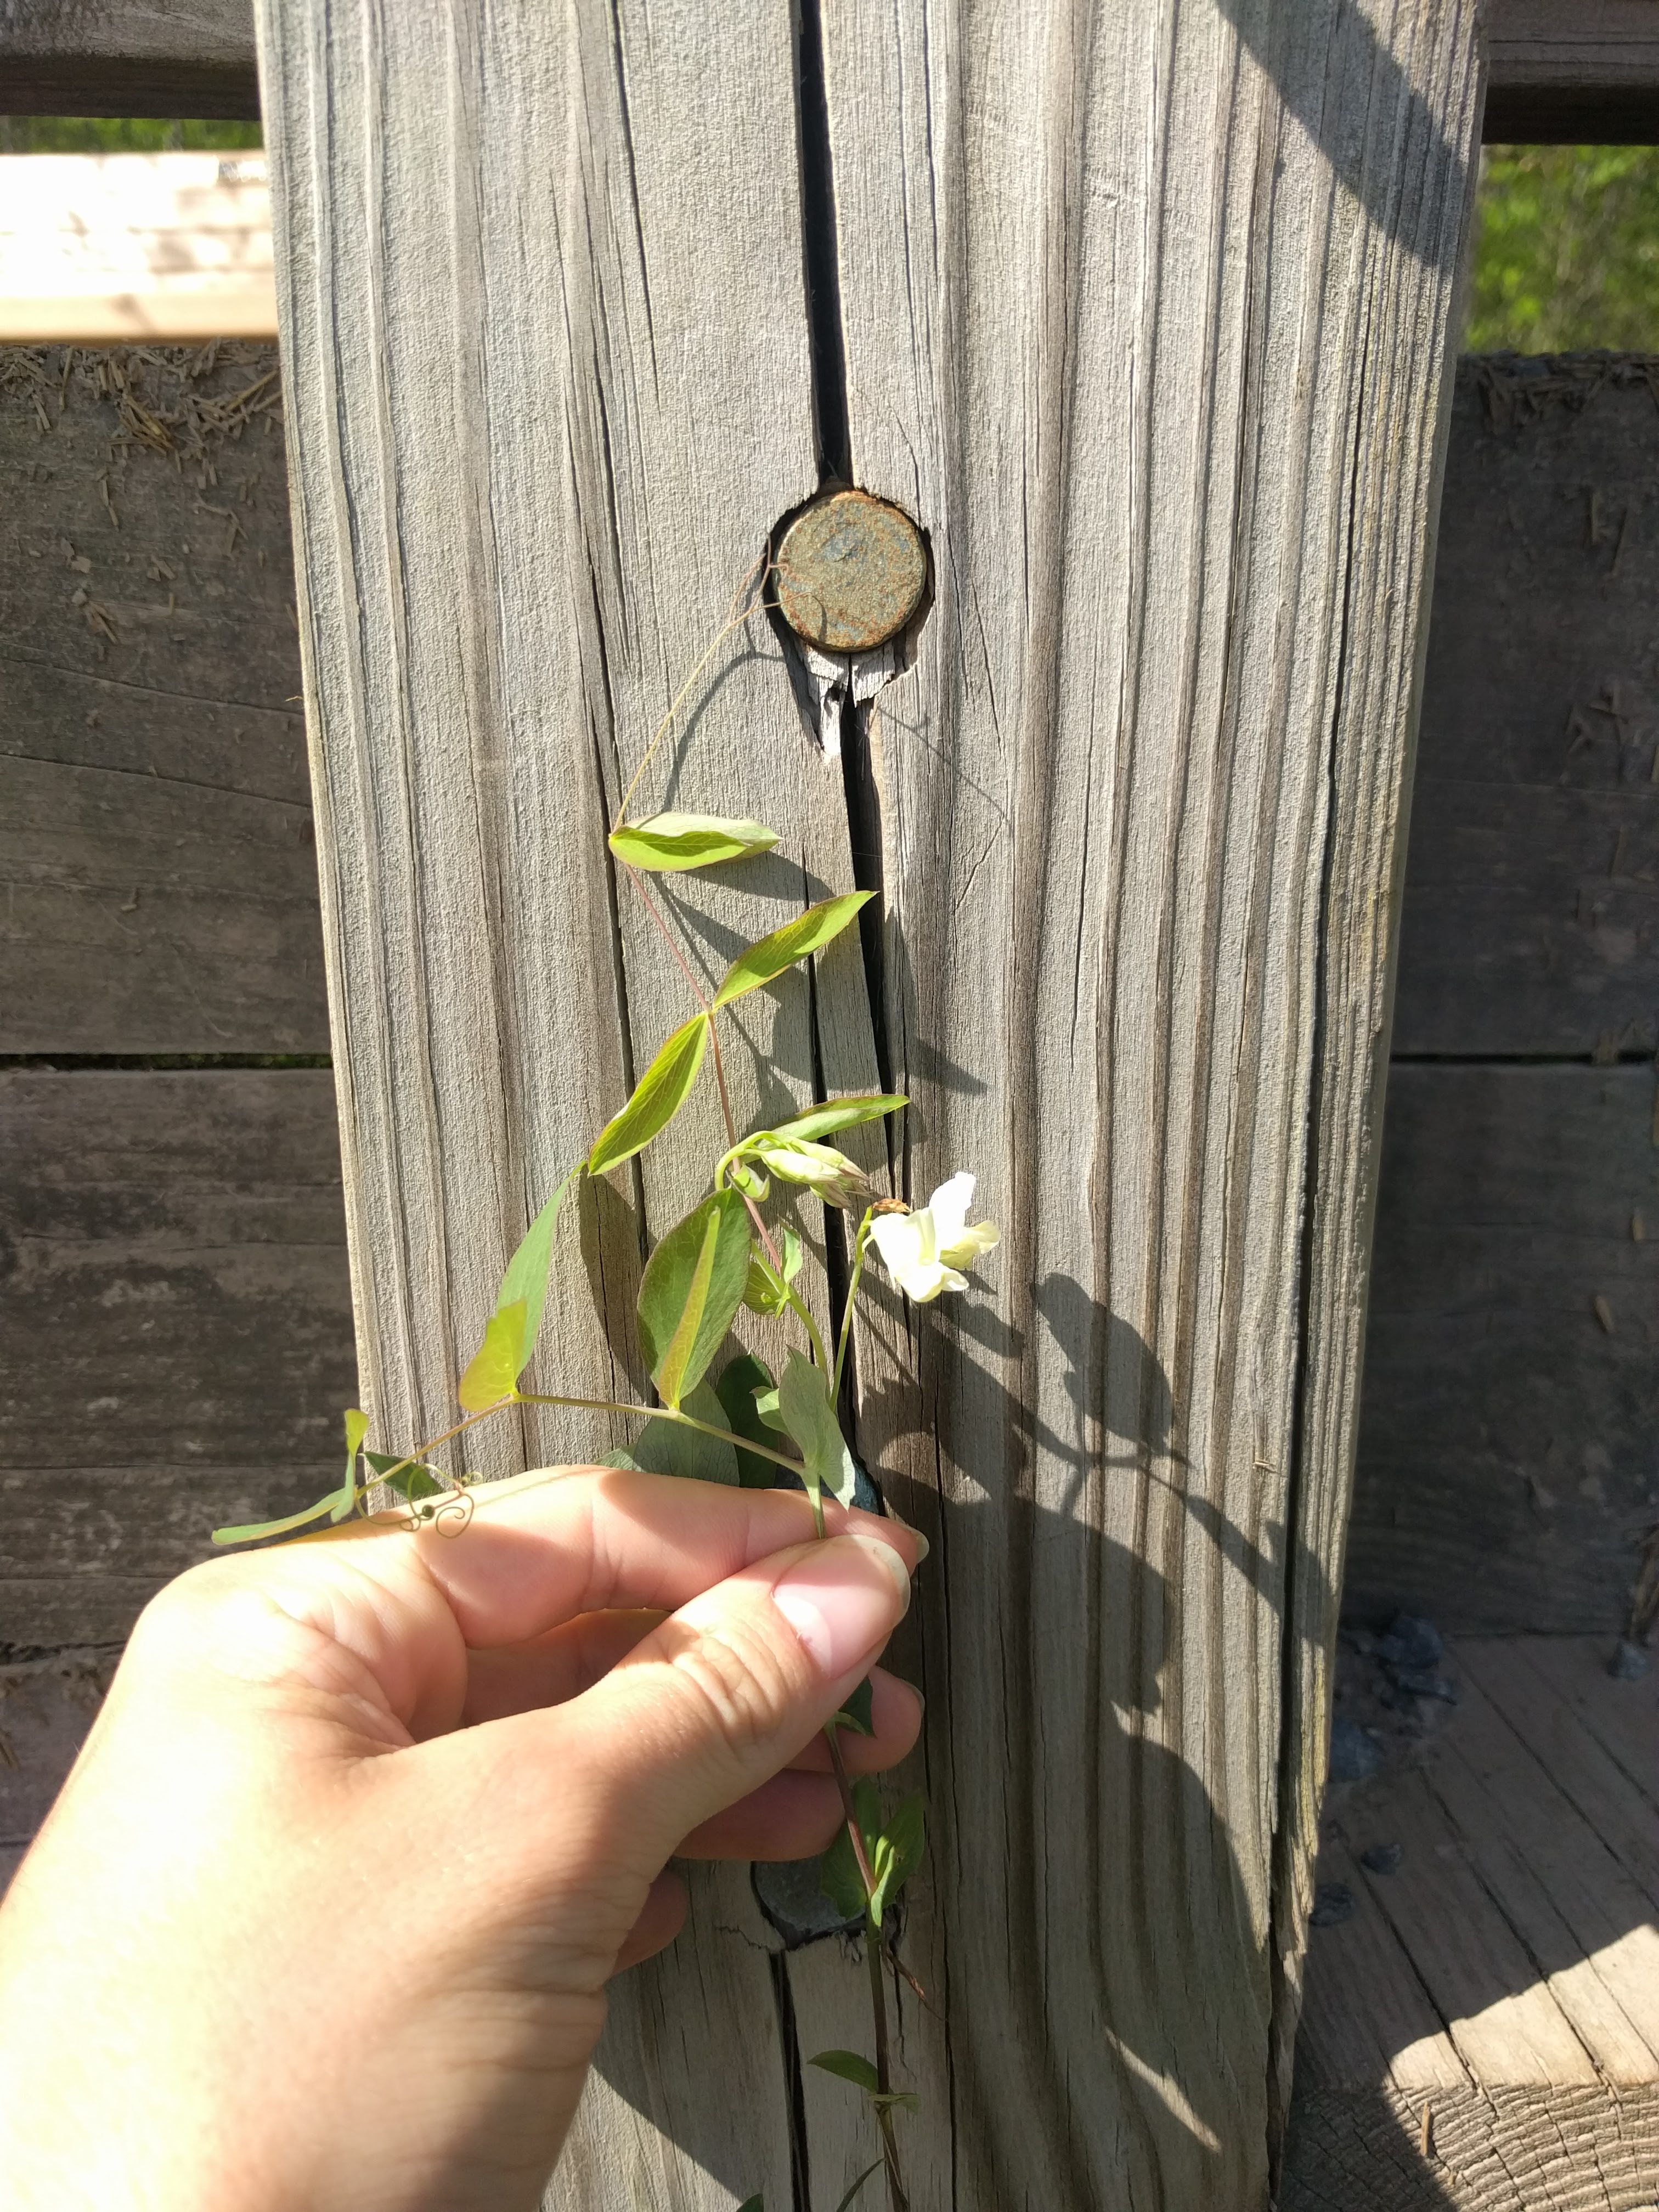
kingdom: Plantae
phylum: Tracheophyta
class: Magnoliopsida
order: Fabales
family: Fabaceae
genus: Lathyrus
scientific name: Lathyrus ochroleucus
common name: Pale vetchling
